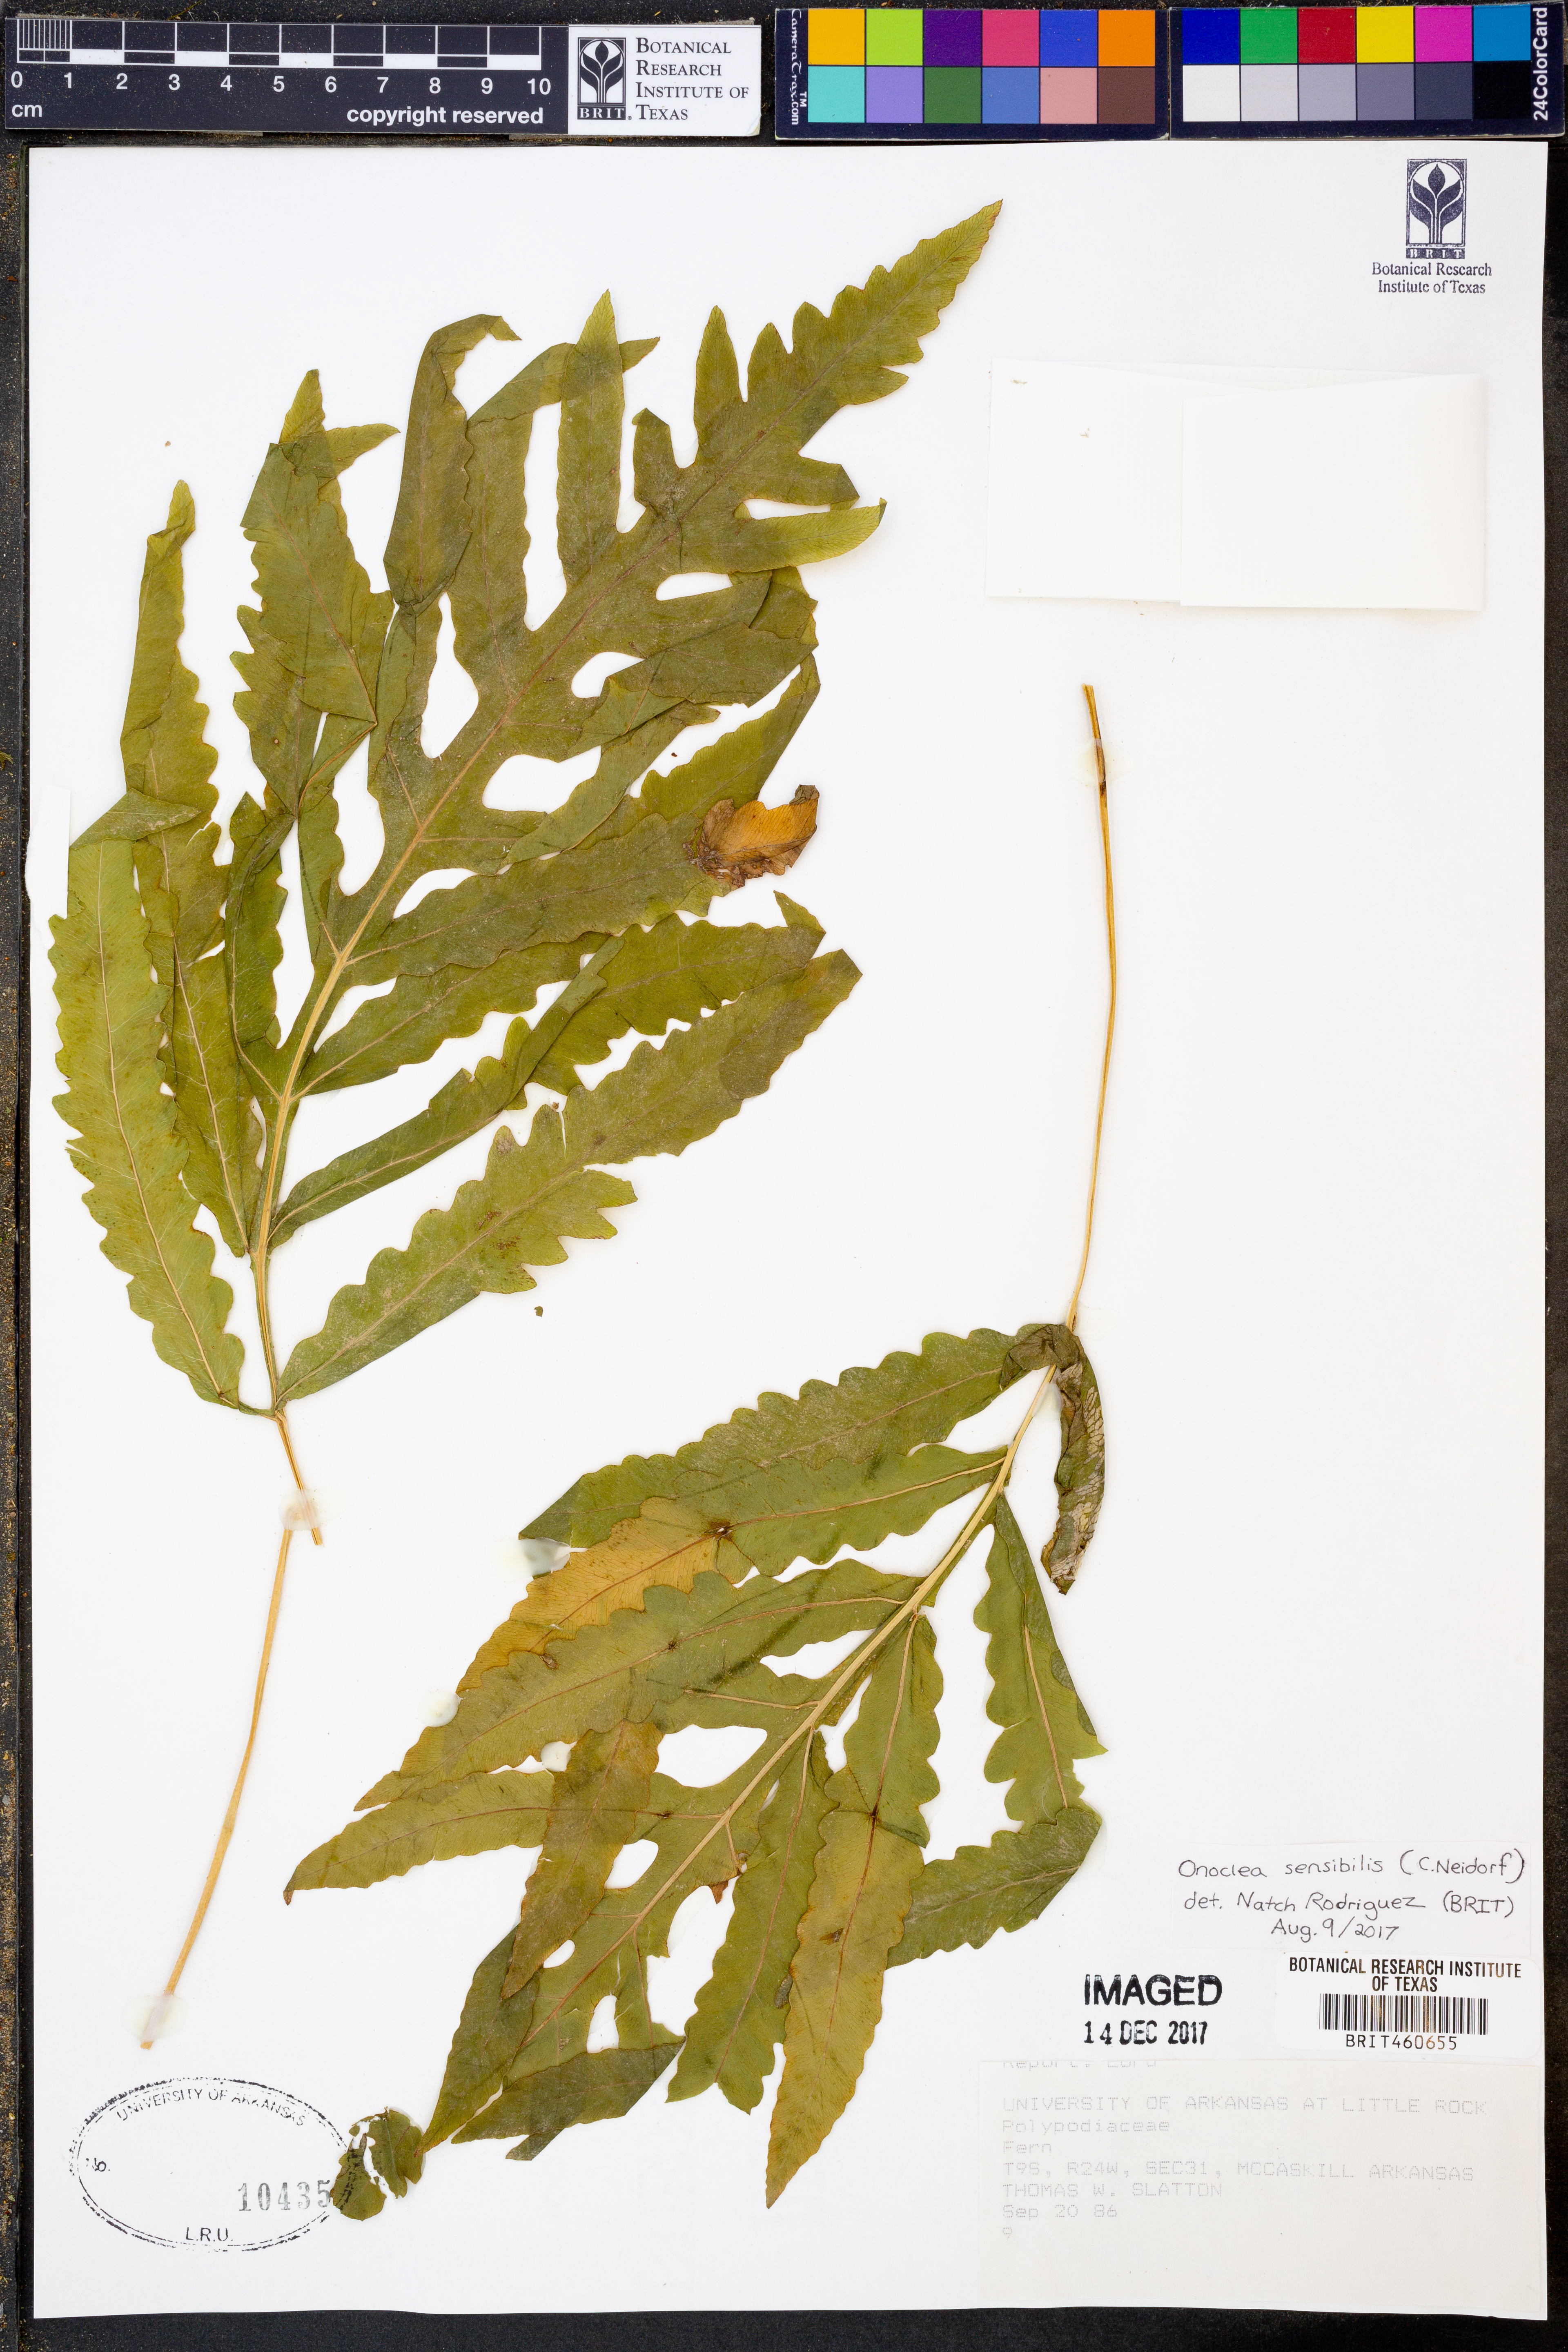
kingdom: Plantae
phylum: Tracheophyta
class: Polypodiopsida
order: Polypodiales
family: Onocleaceae
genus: Onoclea
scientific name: Onoclea sensibilis
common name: Sensitive fern
